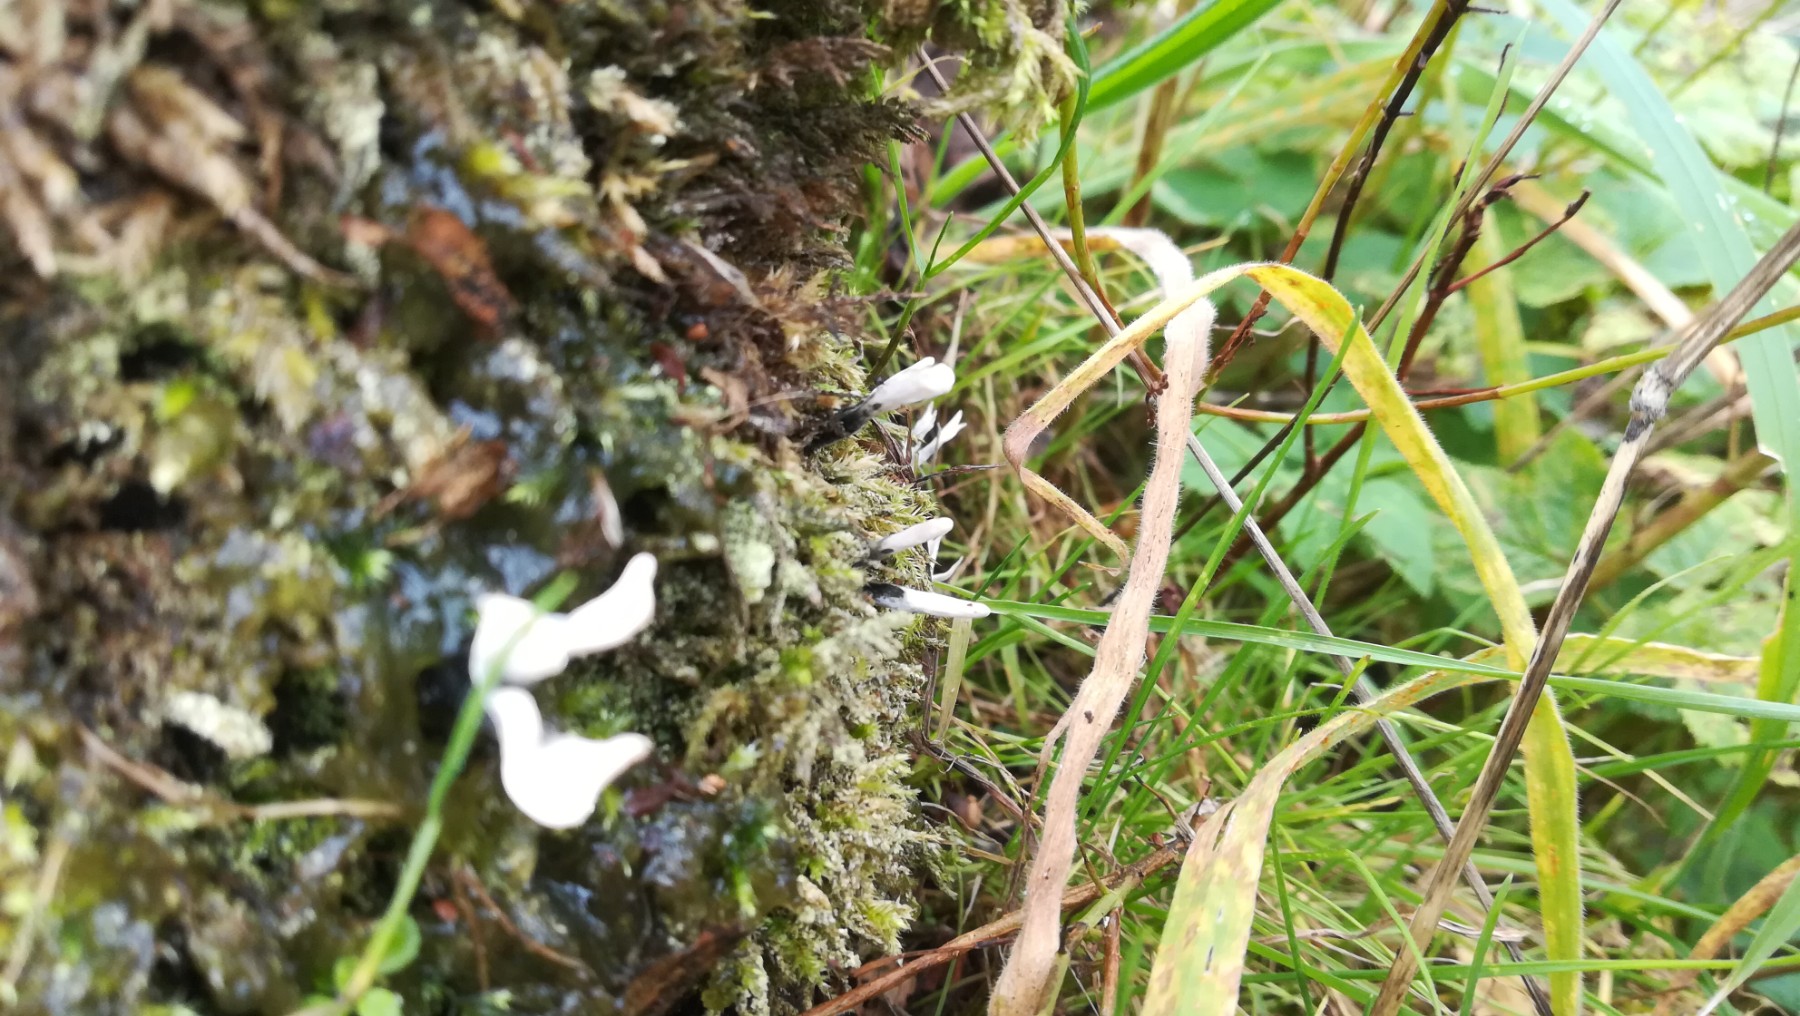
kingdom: Fungi
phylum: Ascomycota
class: Sordariomycetes
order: Xylariales
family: Xylariaceae
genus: Xylaria
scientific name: Xylaria hypoxylon
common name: grenet stødsvamp
